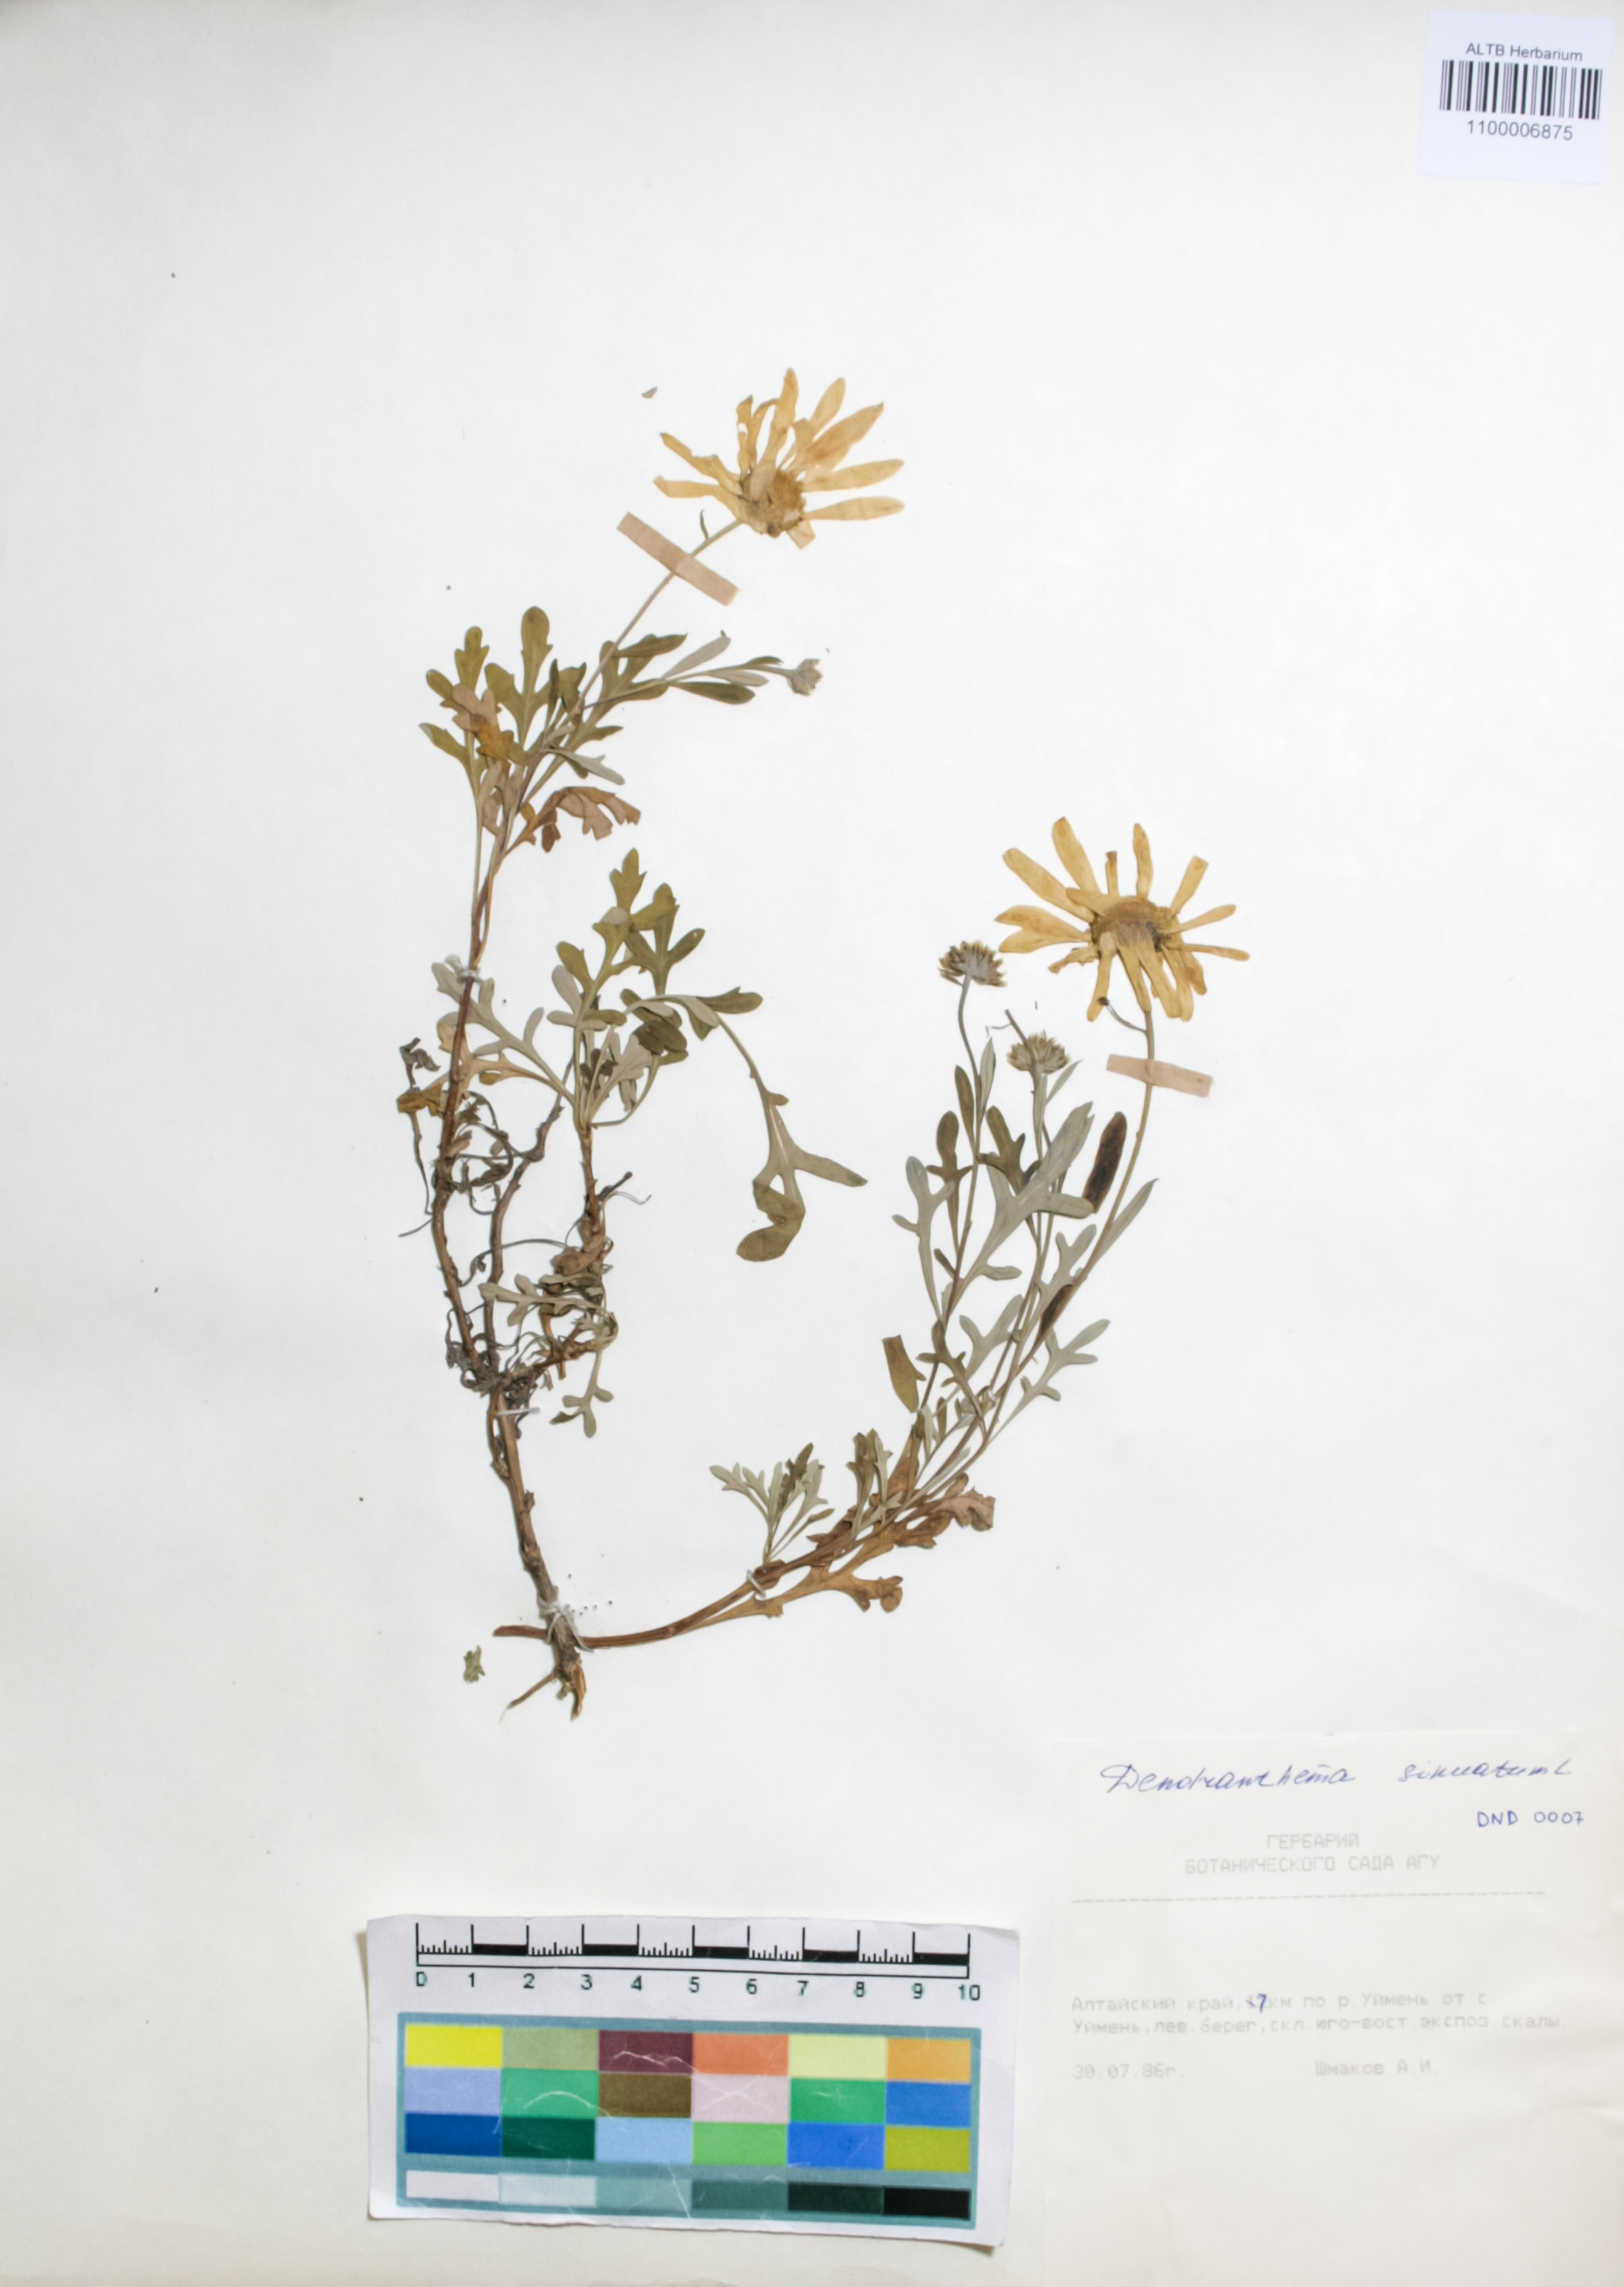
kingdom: Plantae
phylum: Tracheophyta
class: Magnoliopsida
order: Asterales
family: Asteraceae
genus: Chrysanthemum
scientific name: Chrysanthemum sinuatum
